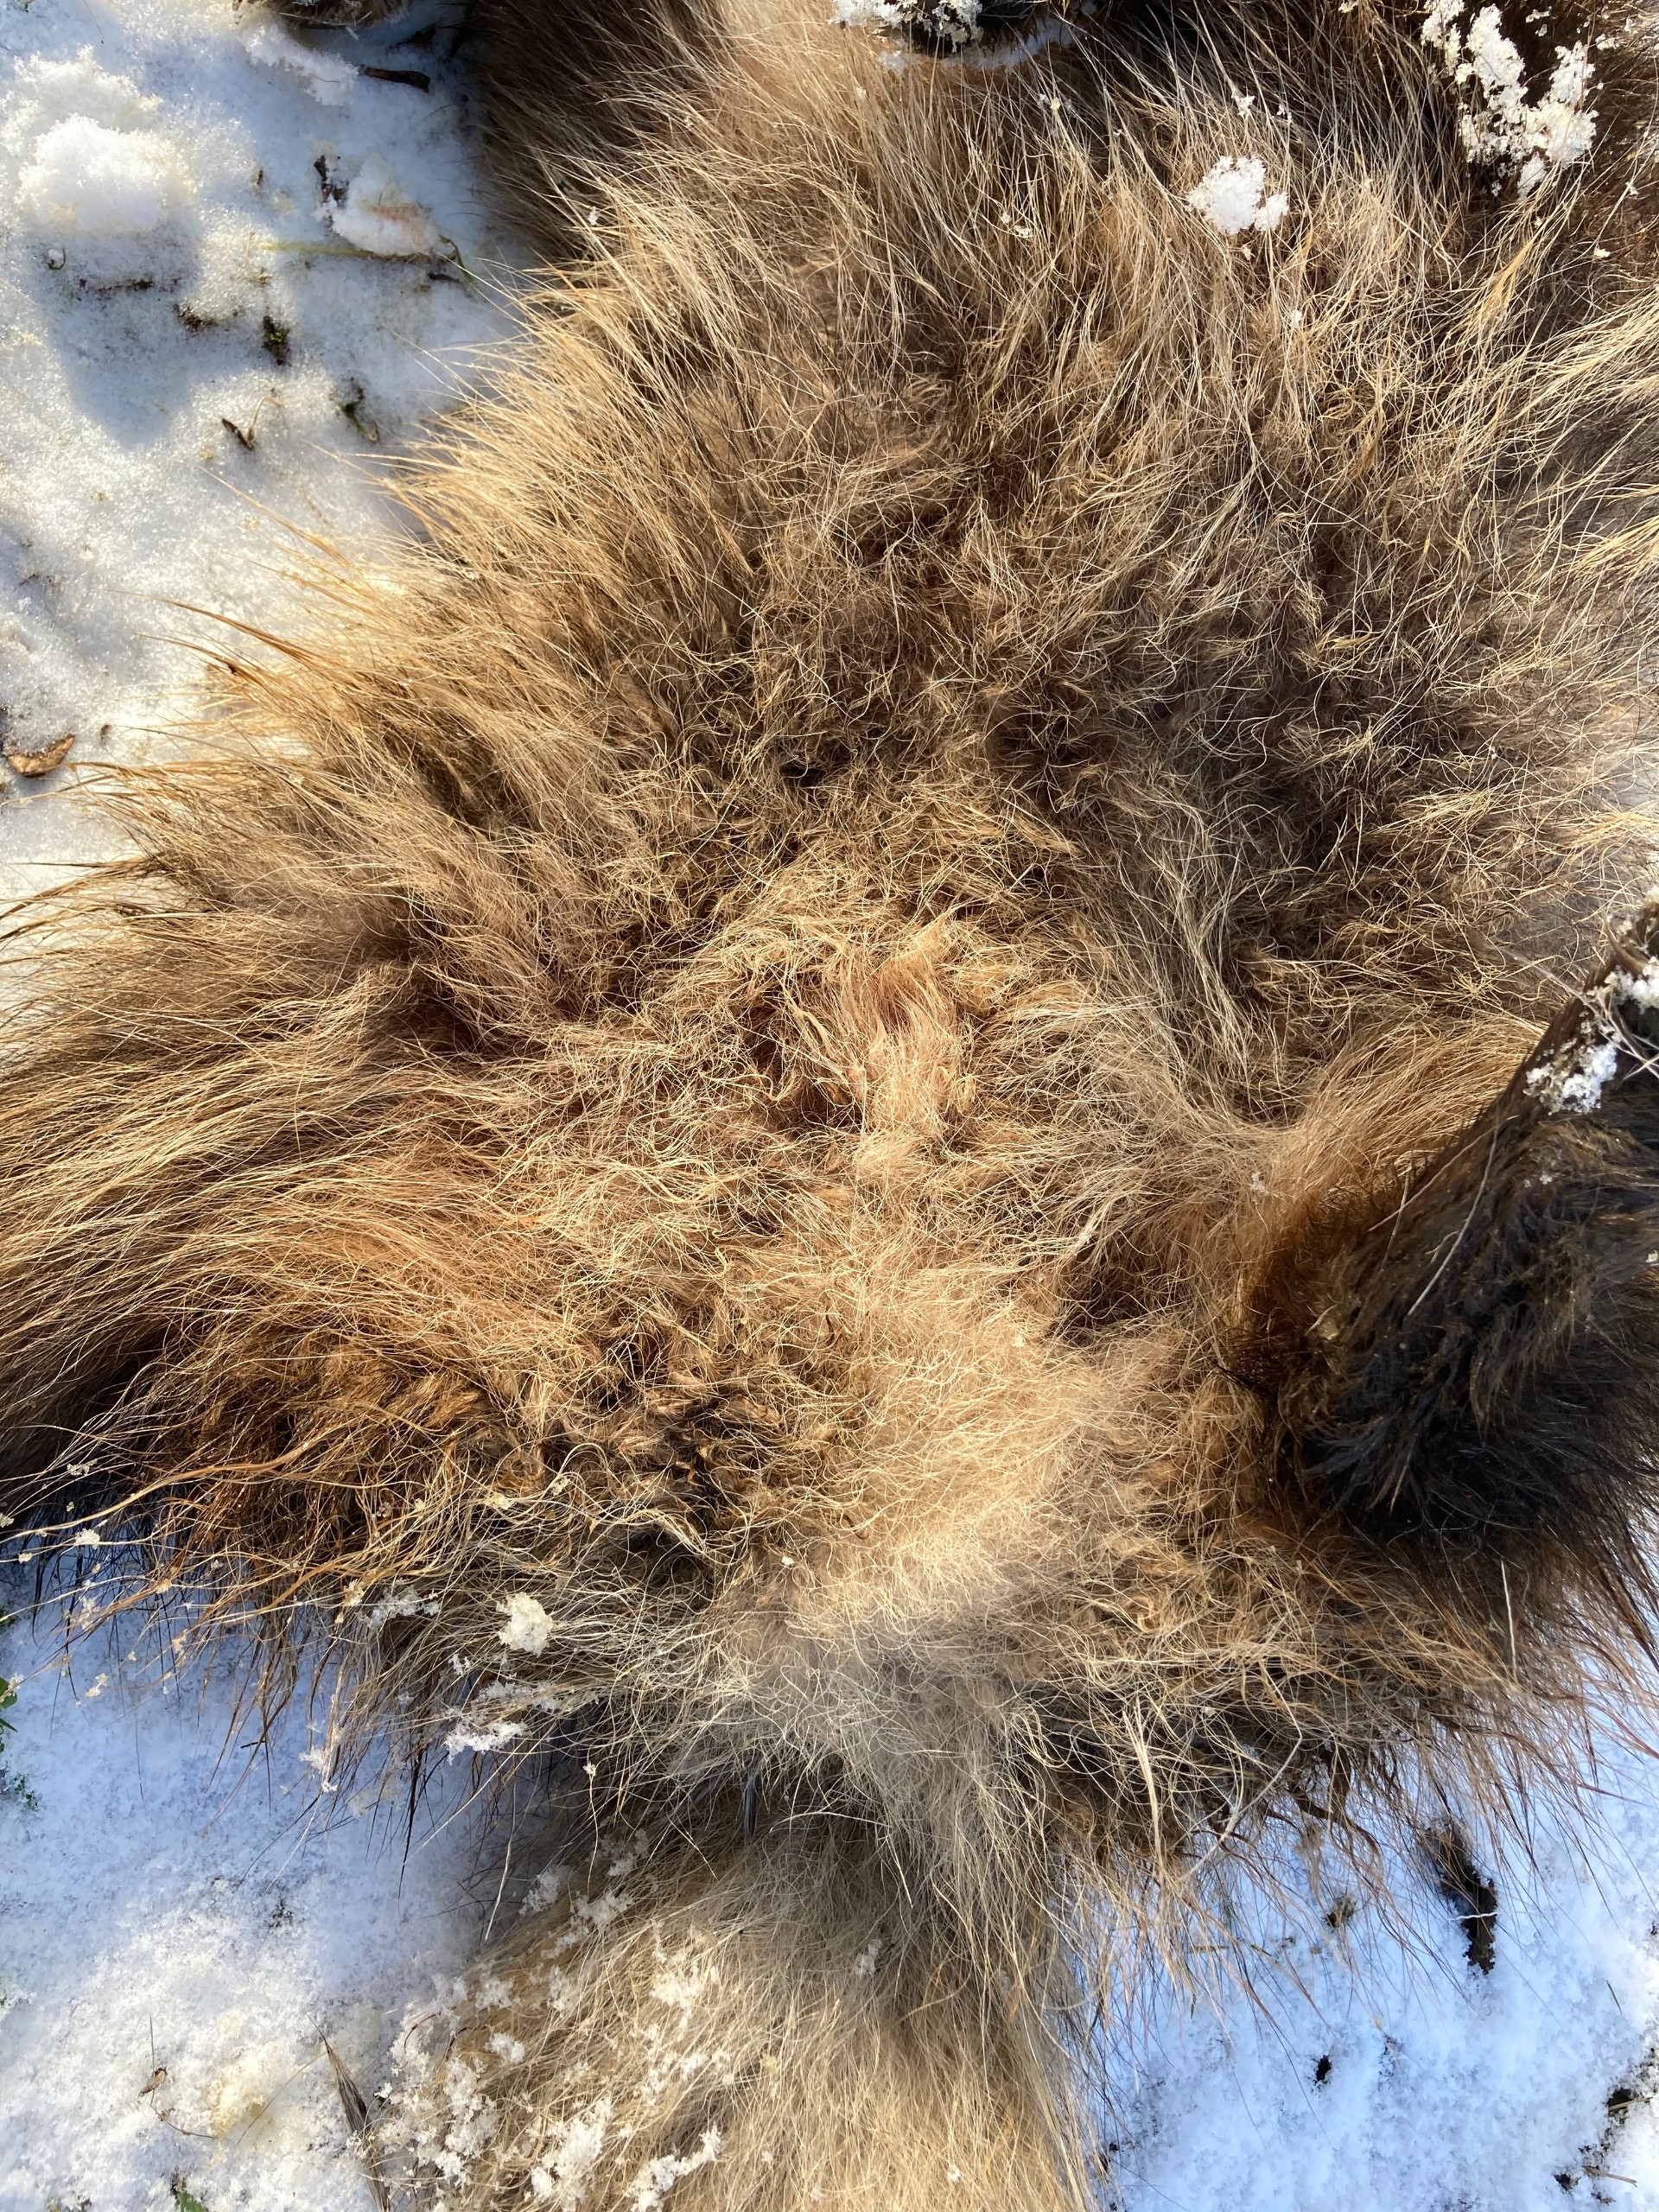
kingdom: Animalia
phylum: Chordata
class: Mammalia
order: Carnivora
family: Canidae
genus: Nyctereutes
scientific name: Nyctereutes procyonoides
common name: Mårhund
